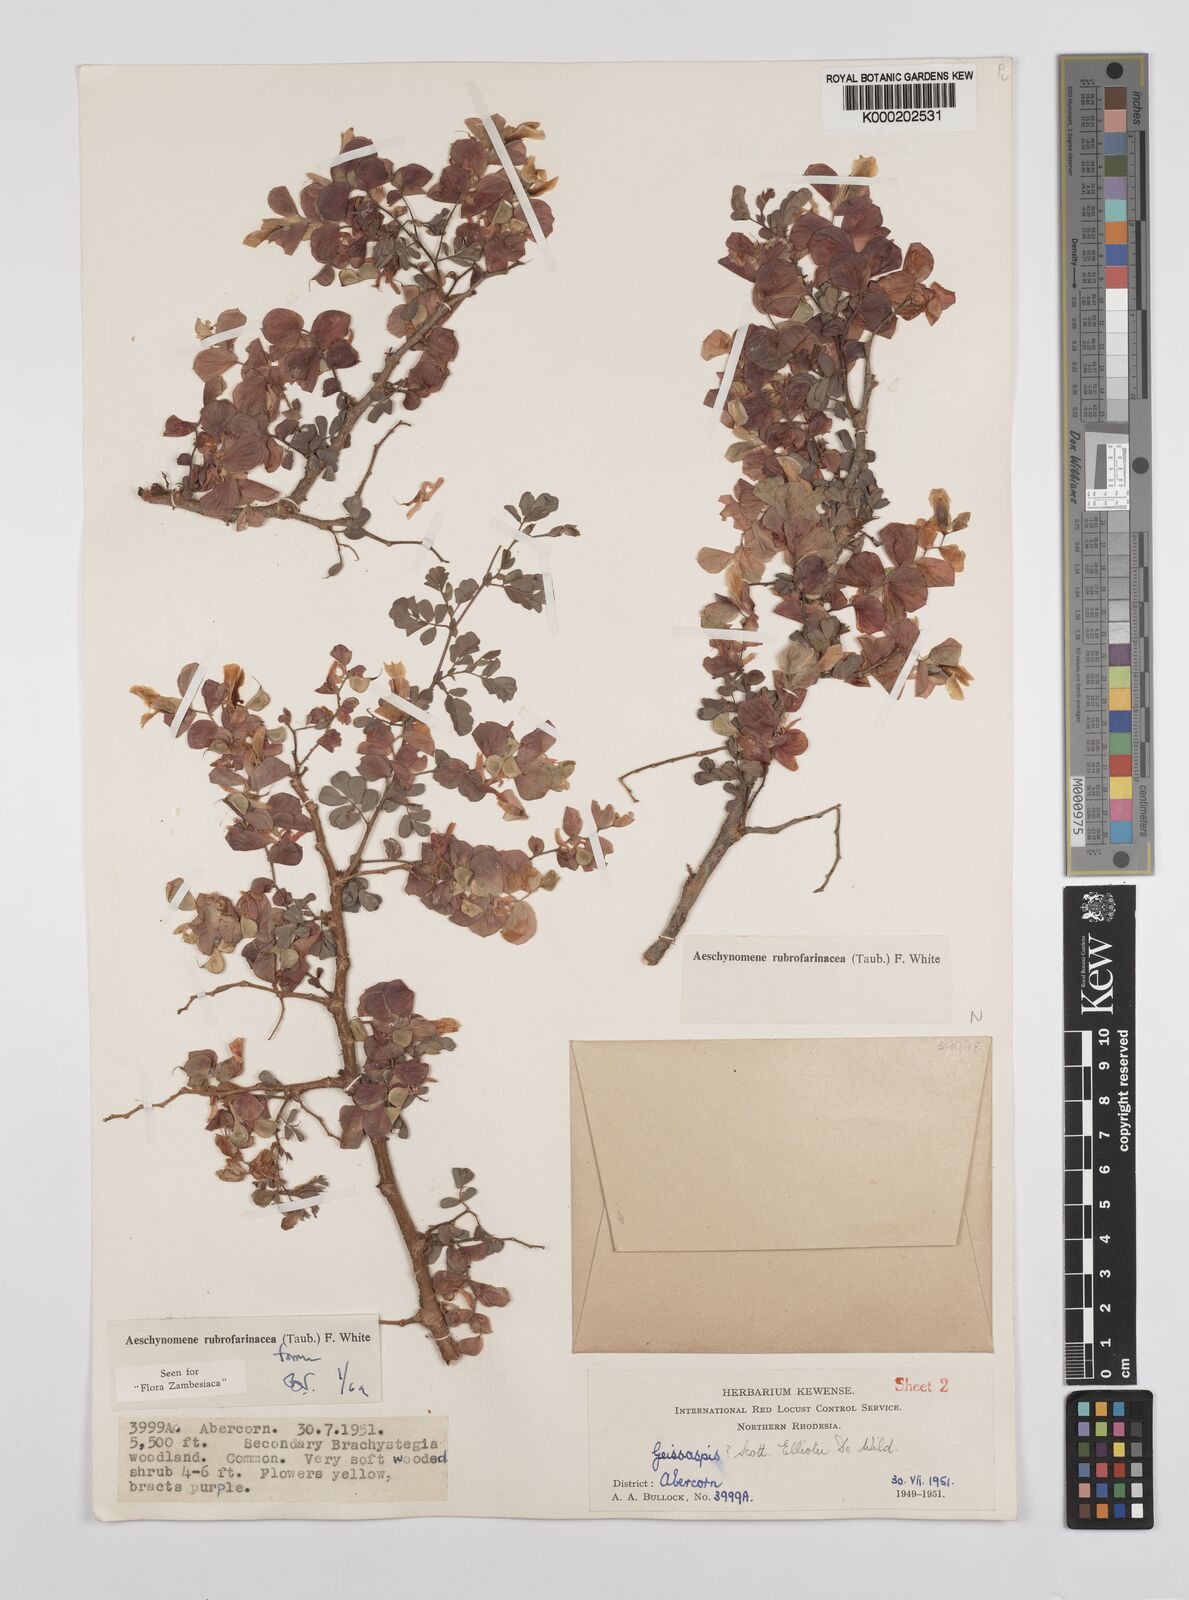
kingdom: Plantae
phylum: Tracheophyta
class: Magnoliopsida
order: Fabales
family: Fabaceae
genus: Aeschynomene
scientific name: Aeschynomene rubrofarinacea
